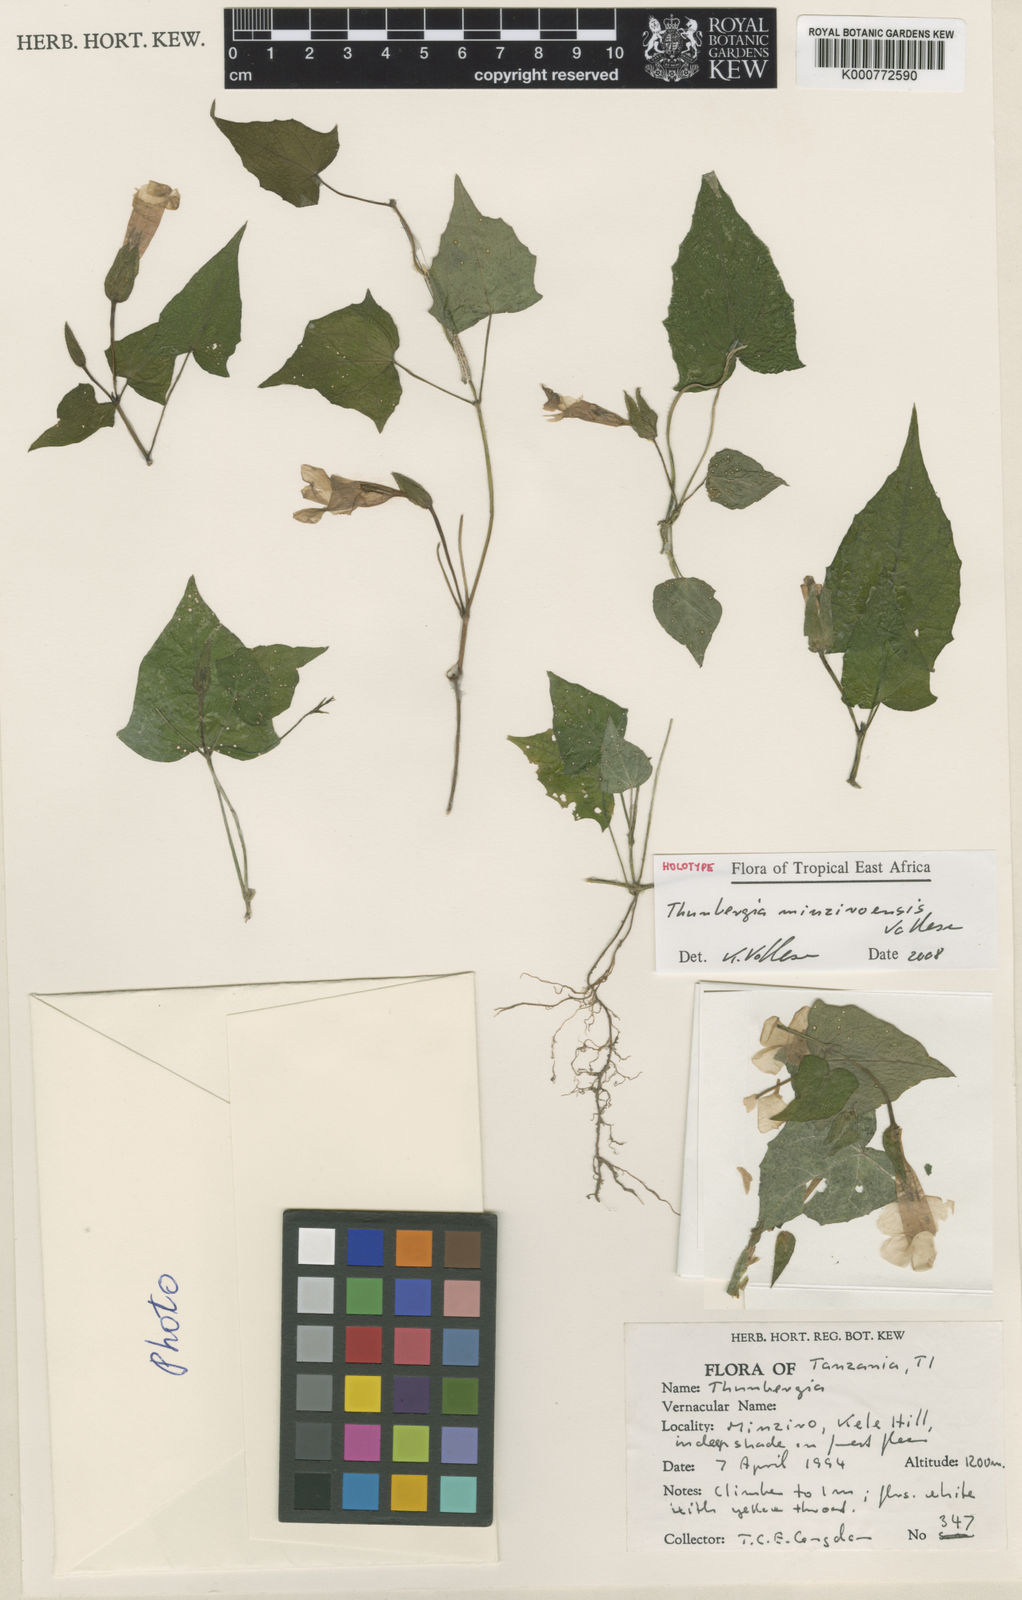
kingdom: Plantae
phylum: Tracheophyta
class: Magnoliopsida
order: Lamiales
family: Acanthaceae
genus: Thunbergia
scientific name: Thunbergia minziroensis
